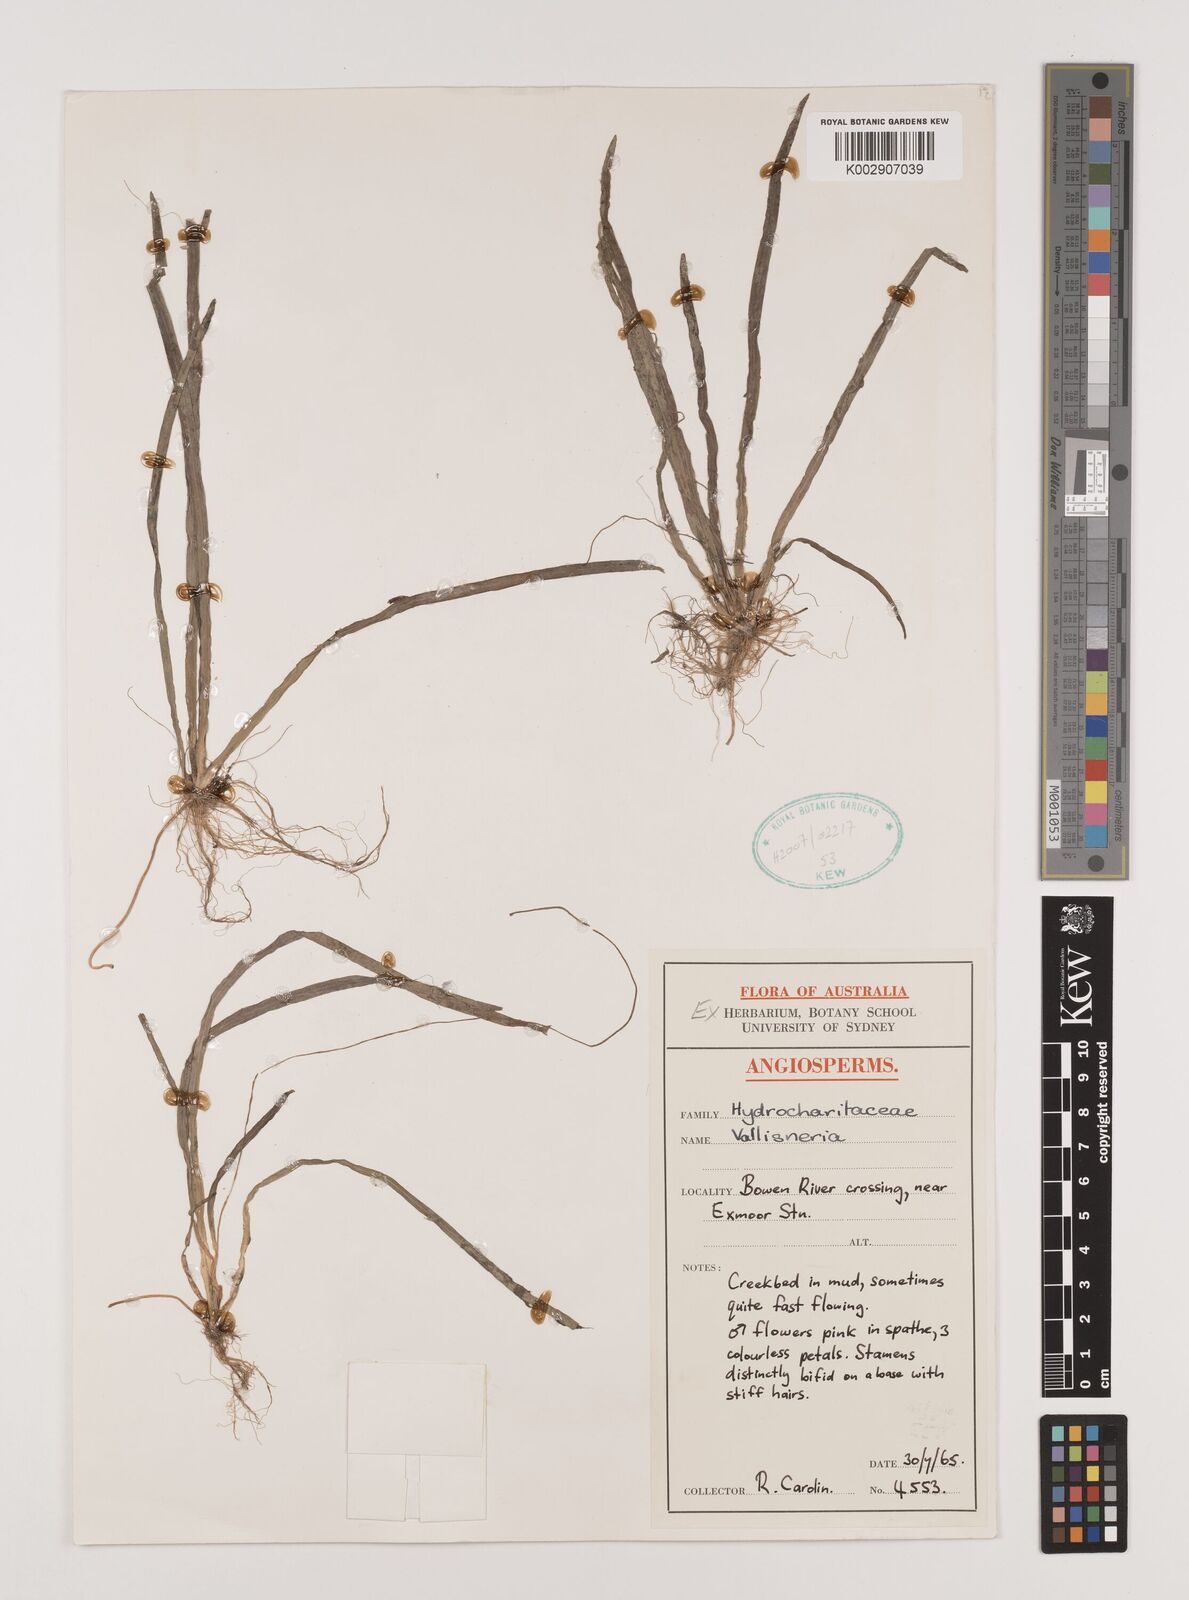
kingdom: Plantae
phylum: Tracheophyta
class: Liliopsida
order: Alismatales
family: Hydrocharitaceae
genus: Vallisneria
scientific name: Vallisneria
